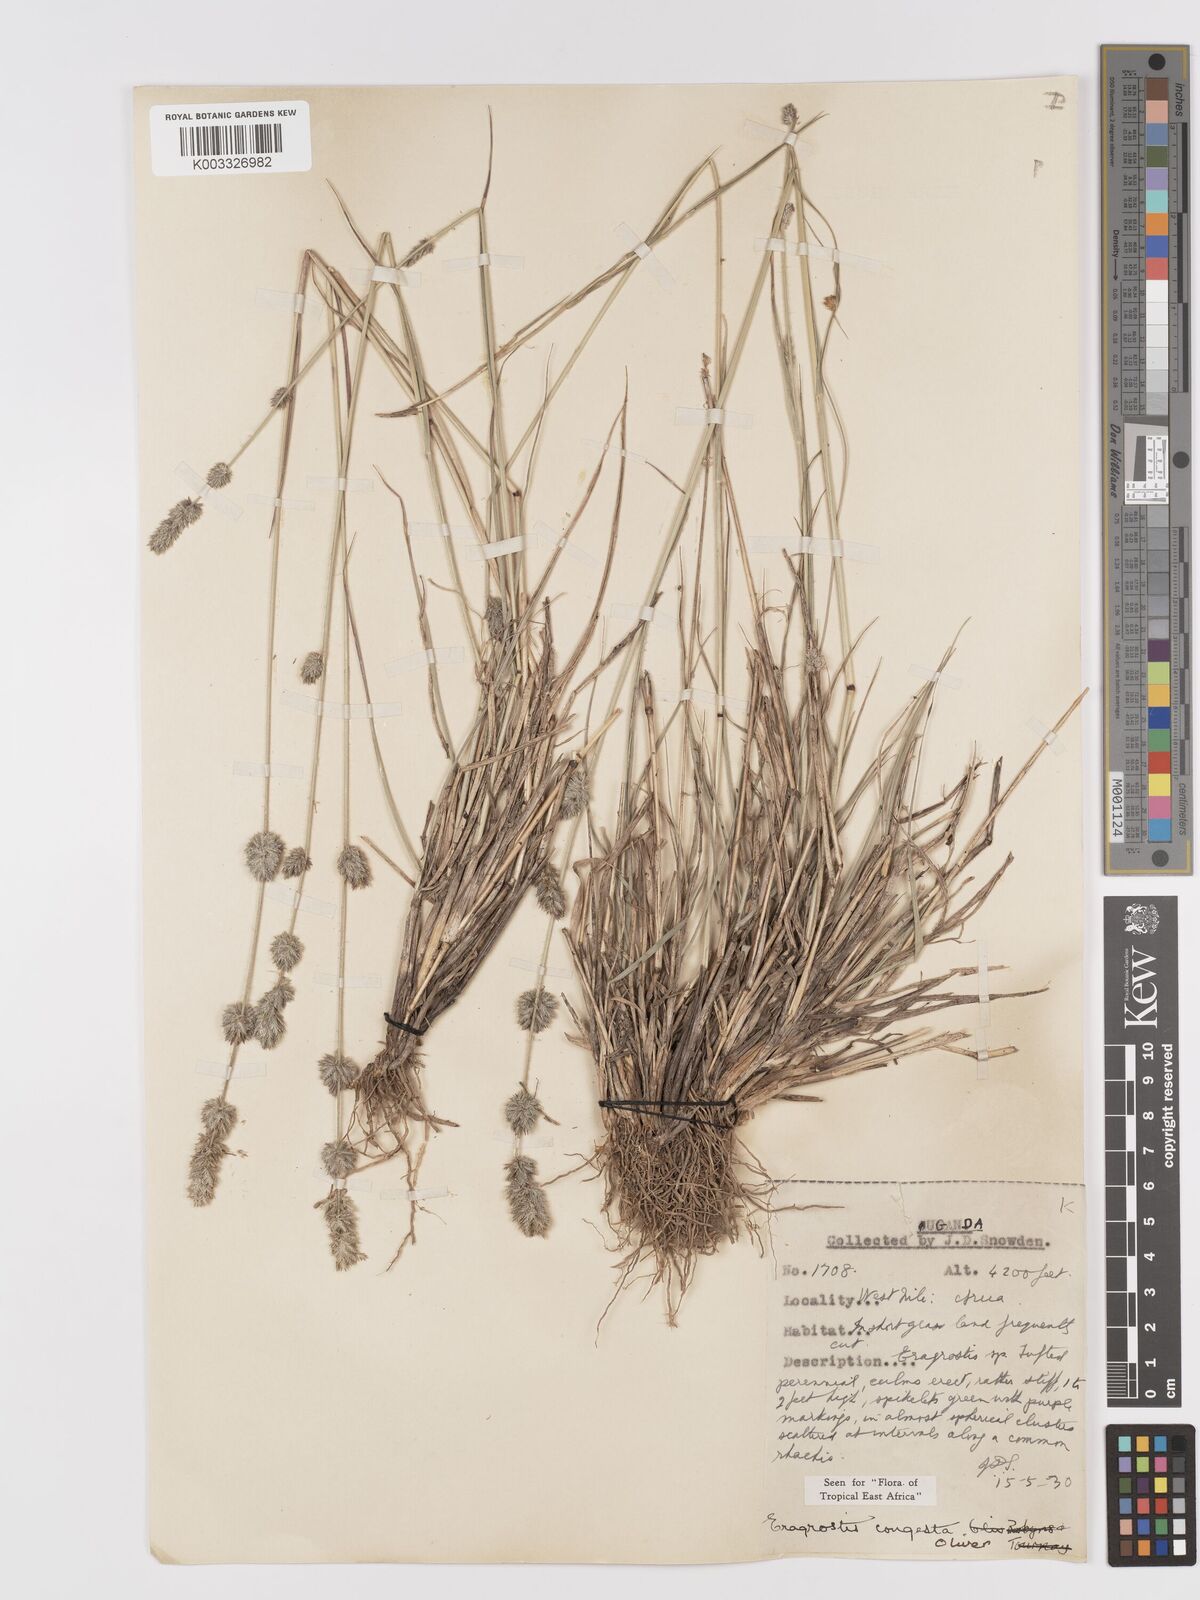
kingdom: Plantae
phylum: Tracheophyta
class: Liliopsida
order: Poales
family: Poaceae
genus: Eragrostis
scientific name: Eragrostis congesta
